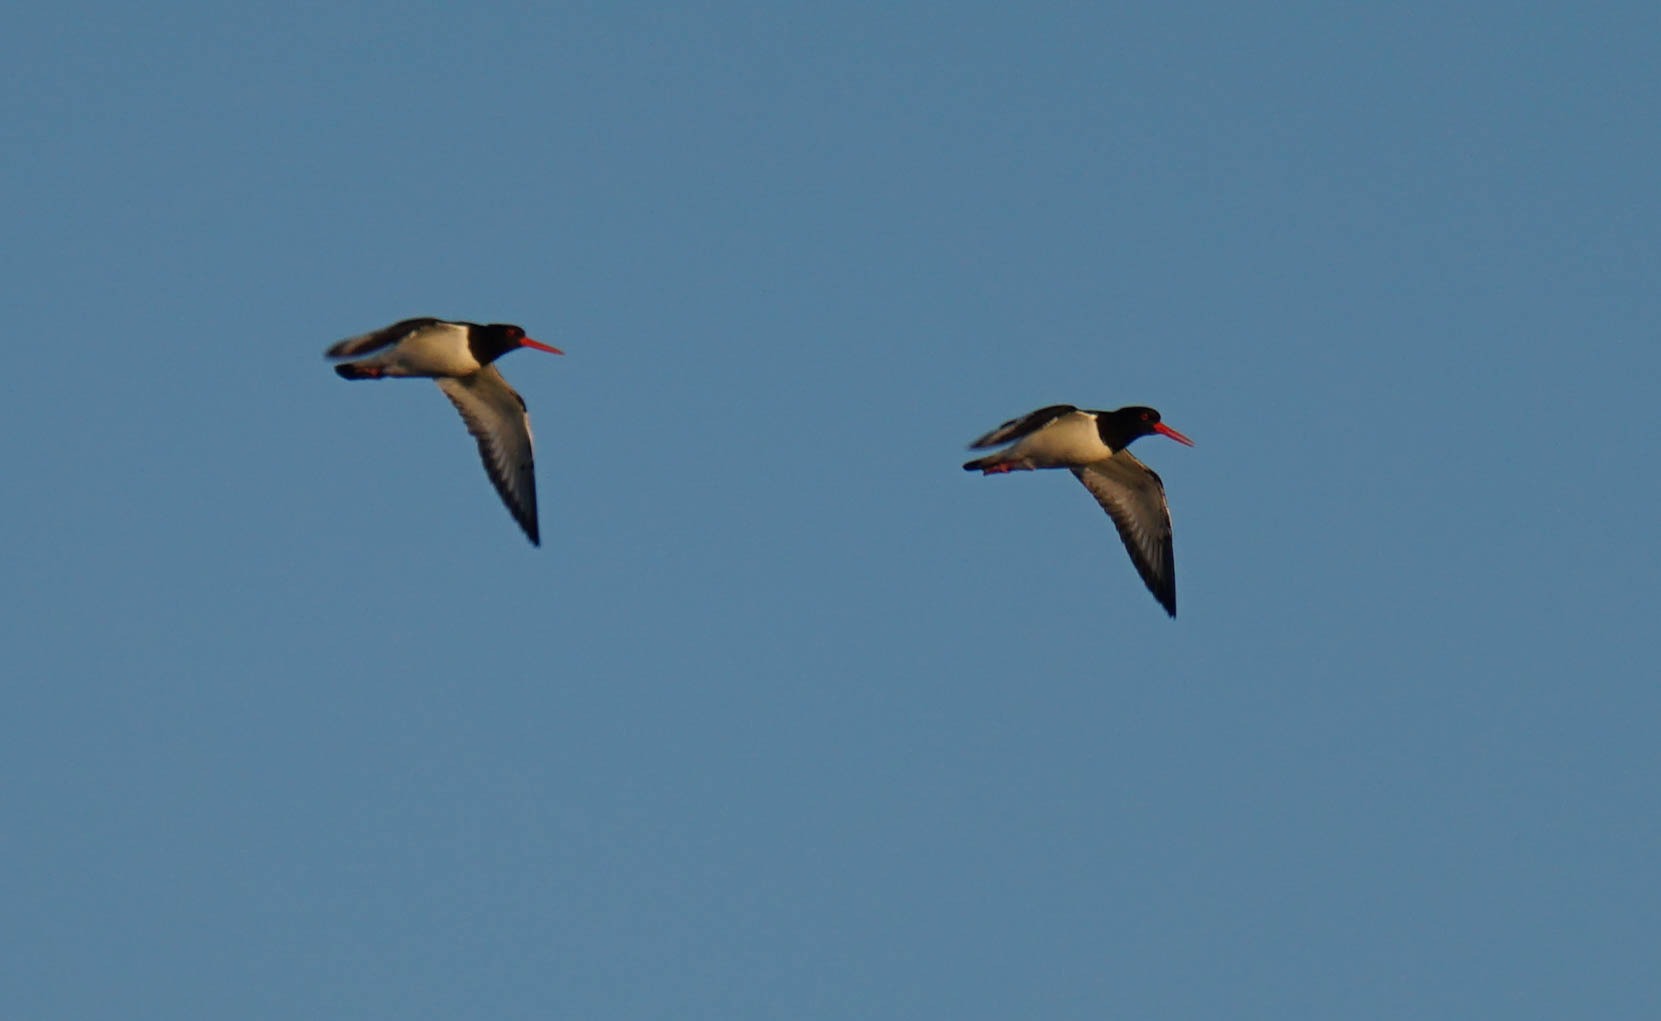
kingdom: Animalia
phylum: Chordata
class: Aves
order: Charadriiformes
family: Haematopodidae
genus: Haematopus
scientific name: Haematopus ostralegus
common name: Strandskade
